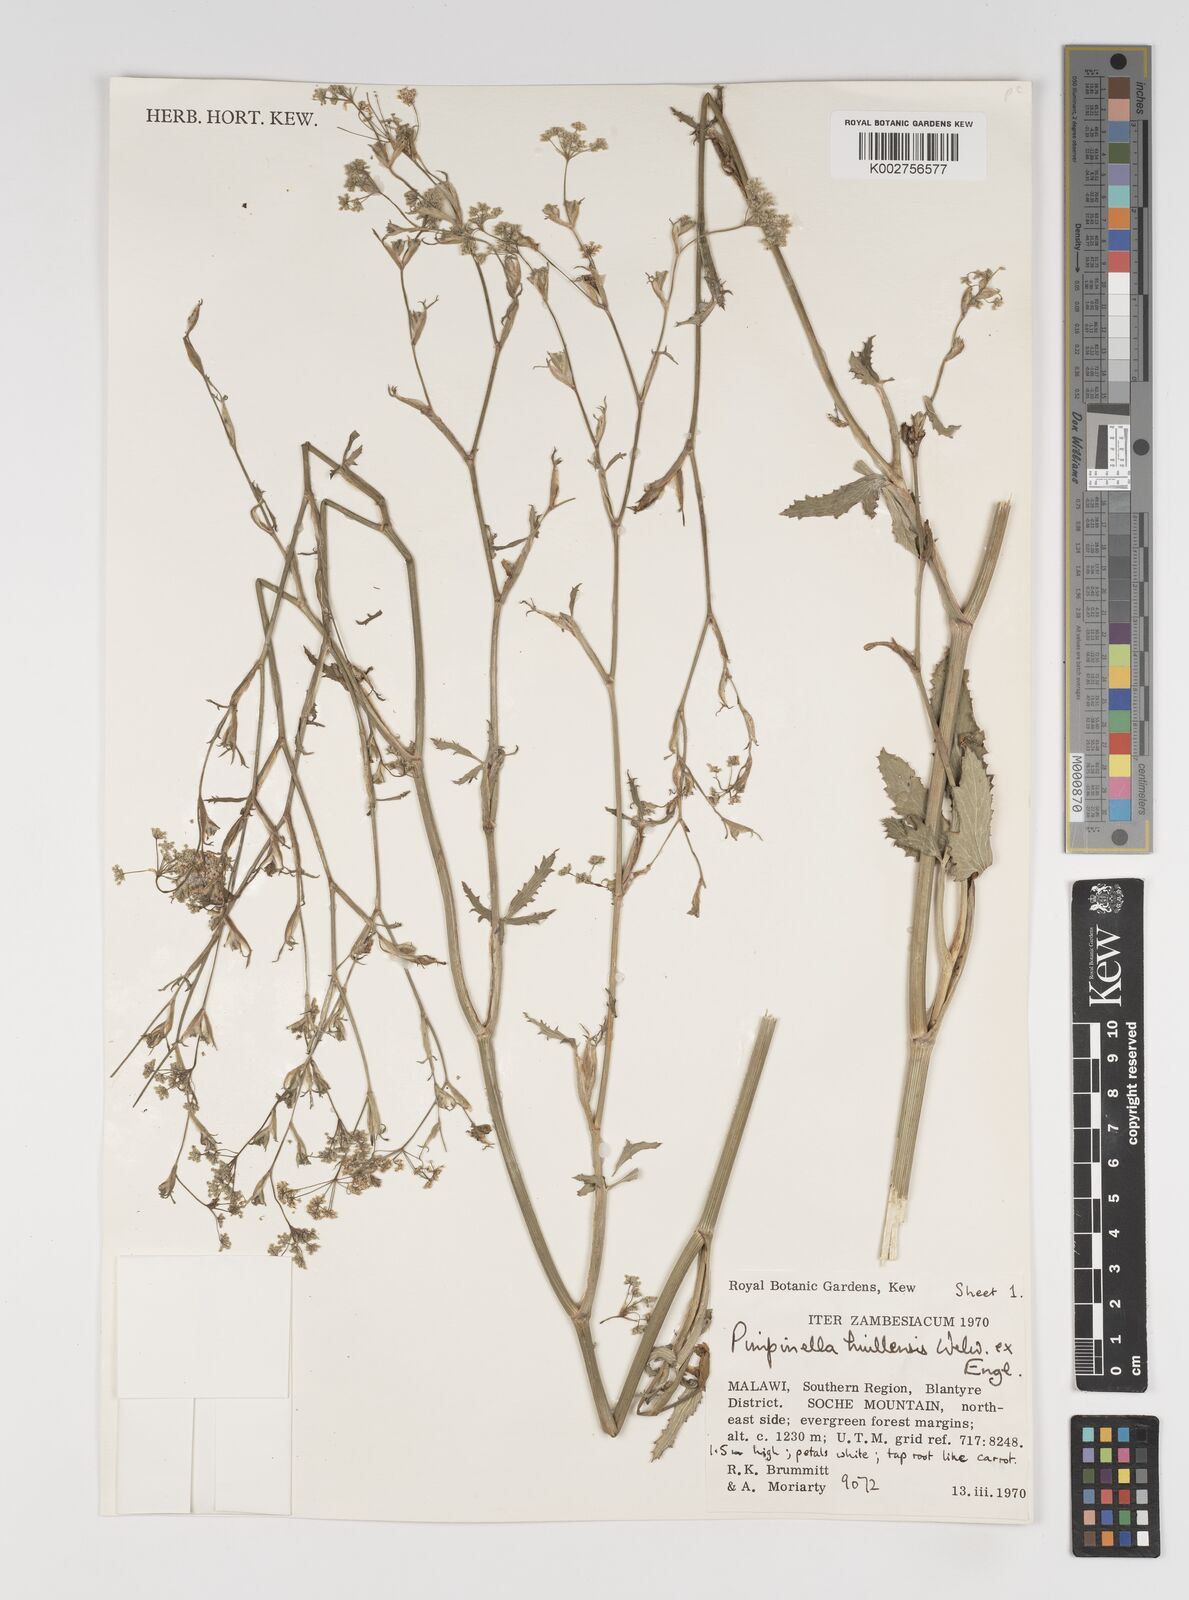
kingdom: Plantae
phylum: Tracheophyta
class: Magnoliopsida
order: Apiales
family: Apiaceae
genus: Pimpinella
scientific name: Pimpinella huillensis
